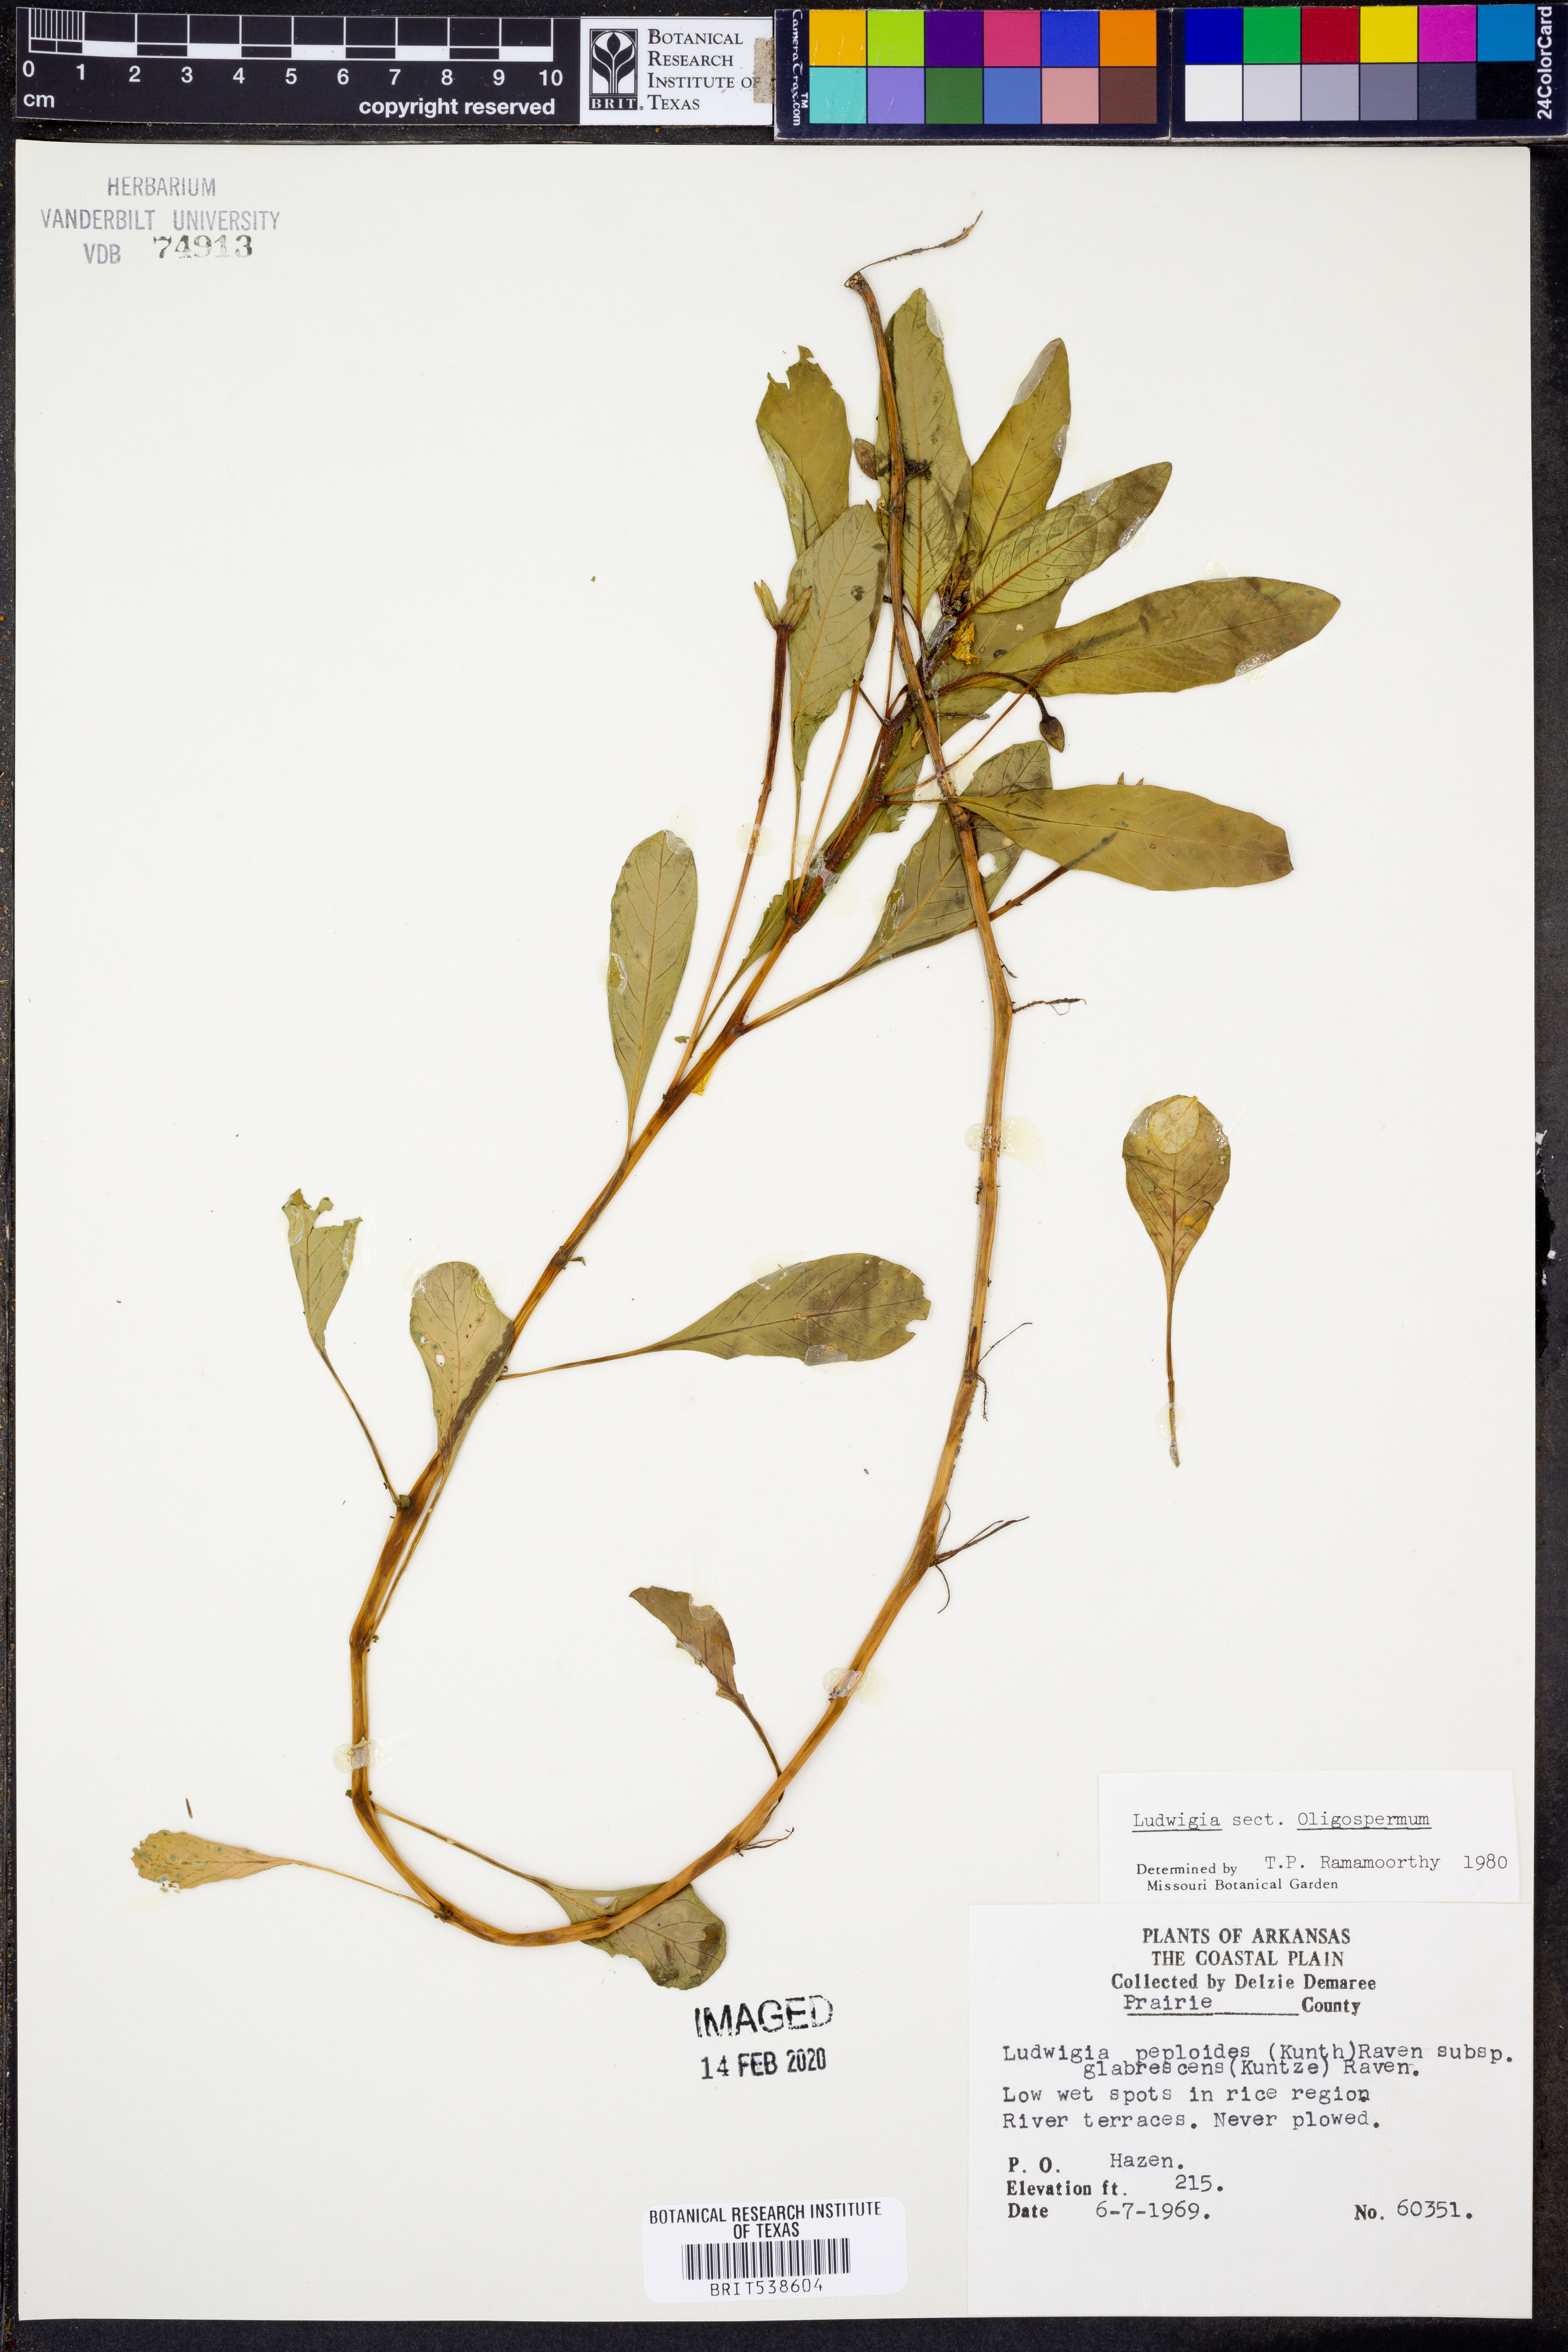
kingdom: Plantae
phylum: Tracheophyta
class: Magnoliopsida
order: Myrtales
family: Onagraceae
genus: Ludwigia
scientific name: Ludwigia peploides
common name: Floating primrose-willow
